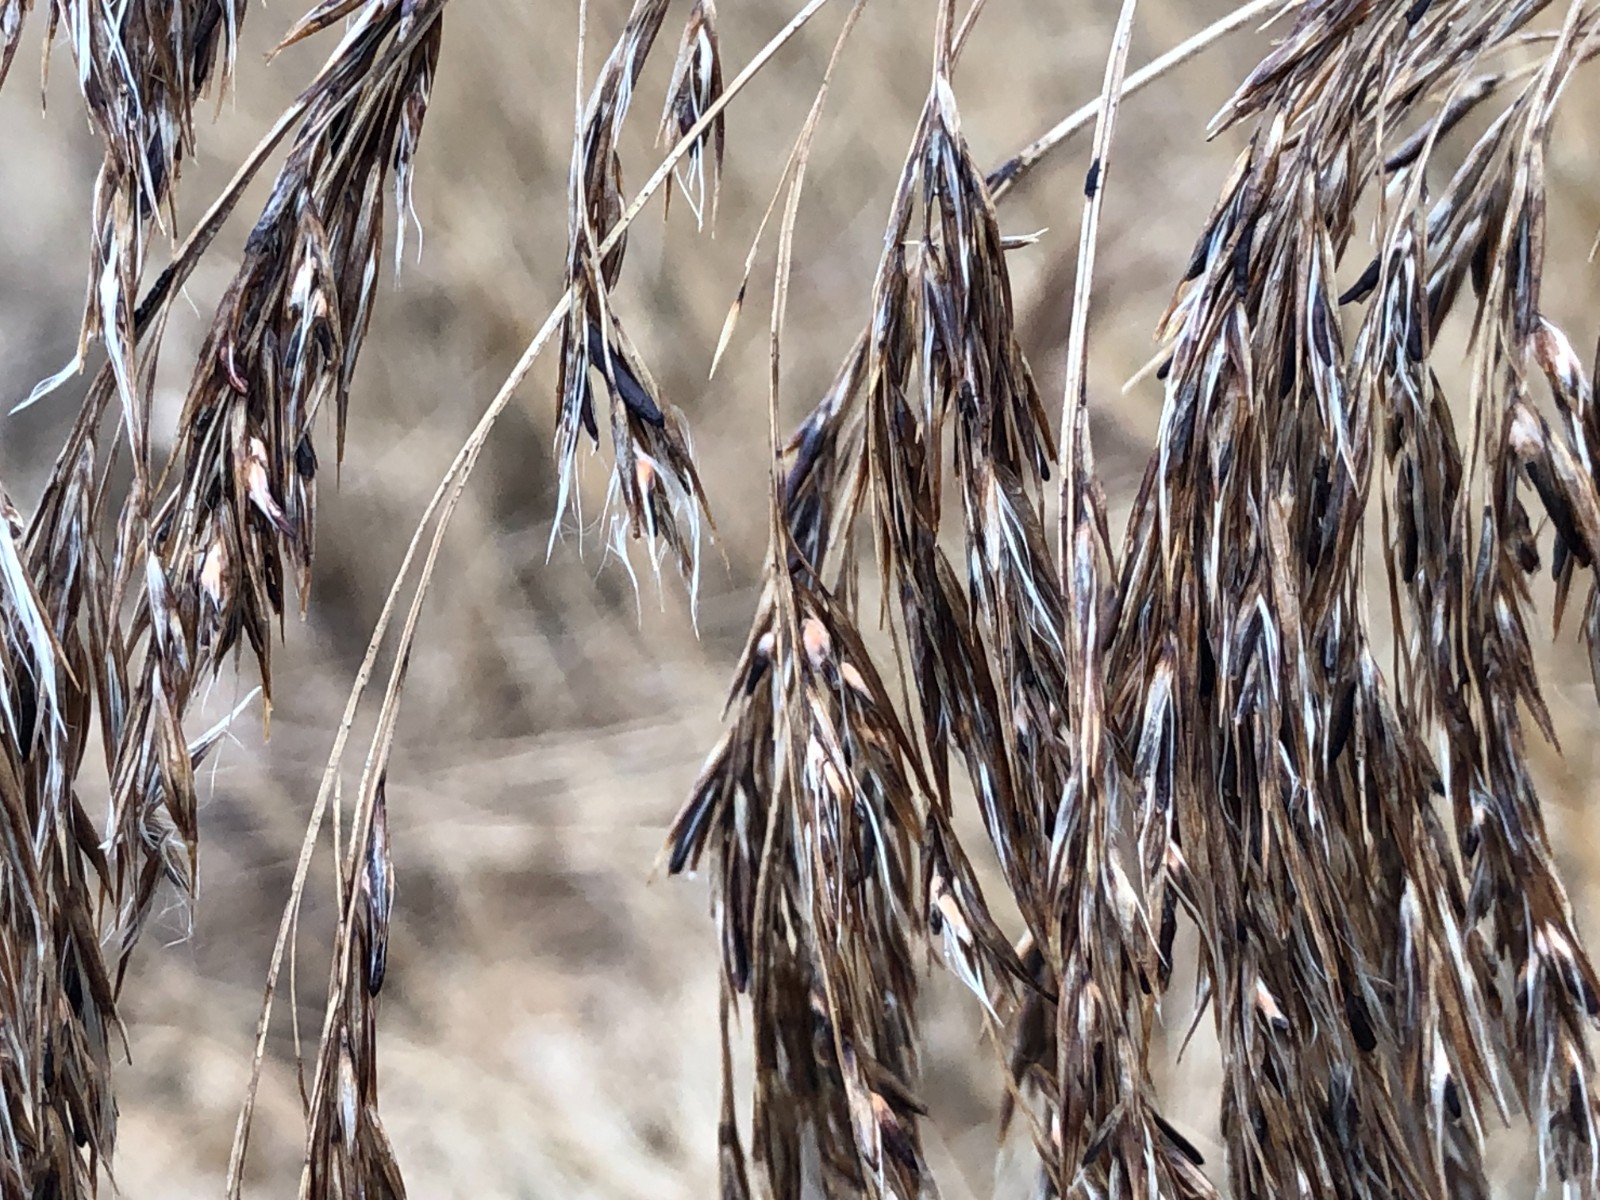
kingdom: Fungi
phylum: Ascomycota
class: Sordariomycetes
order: Hypocreales
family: Clavicipitaceae
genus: Claviceps
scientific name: Claviceps arundinis
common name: tagrør-meldrøjer
